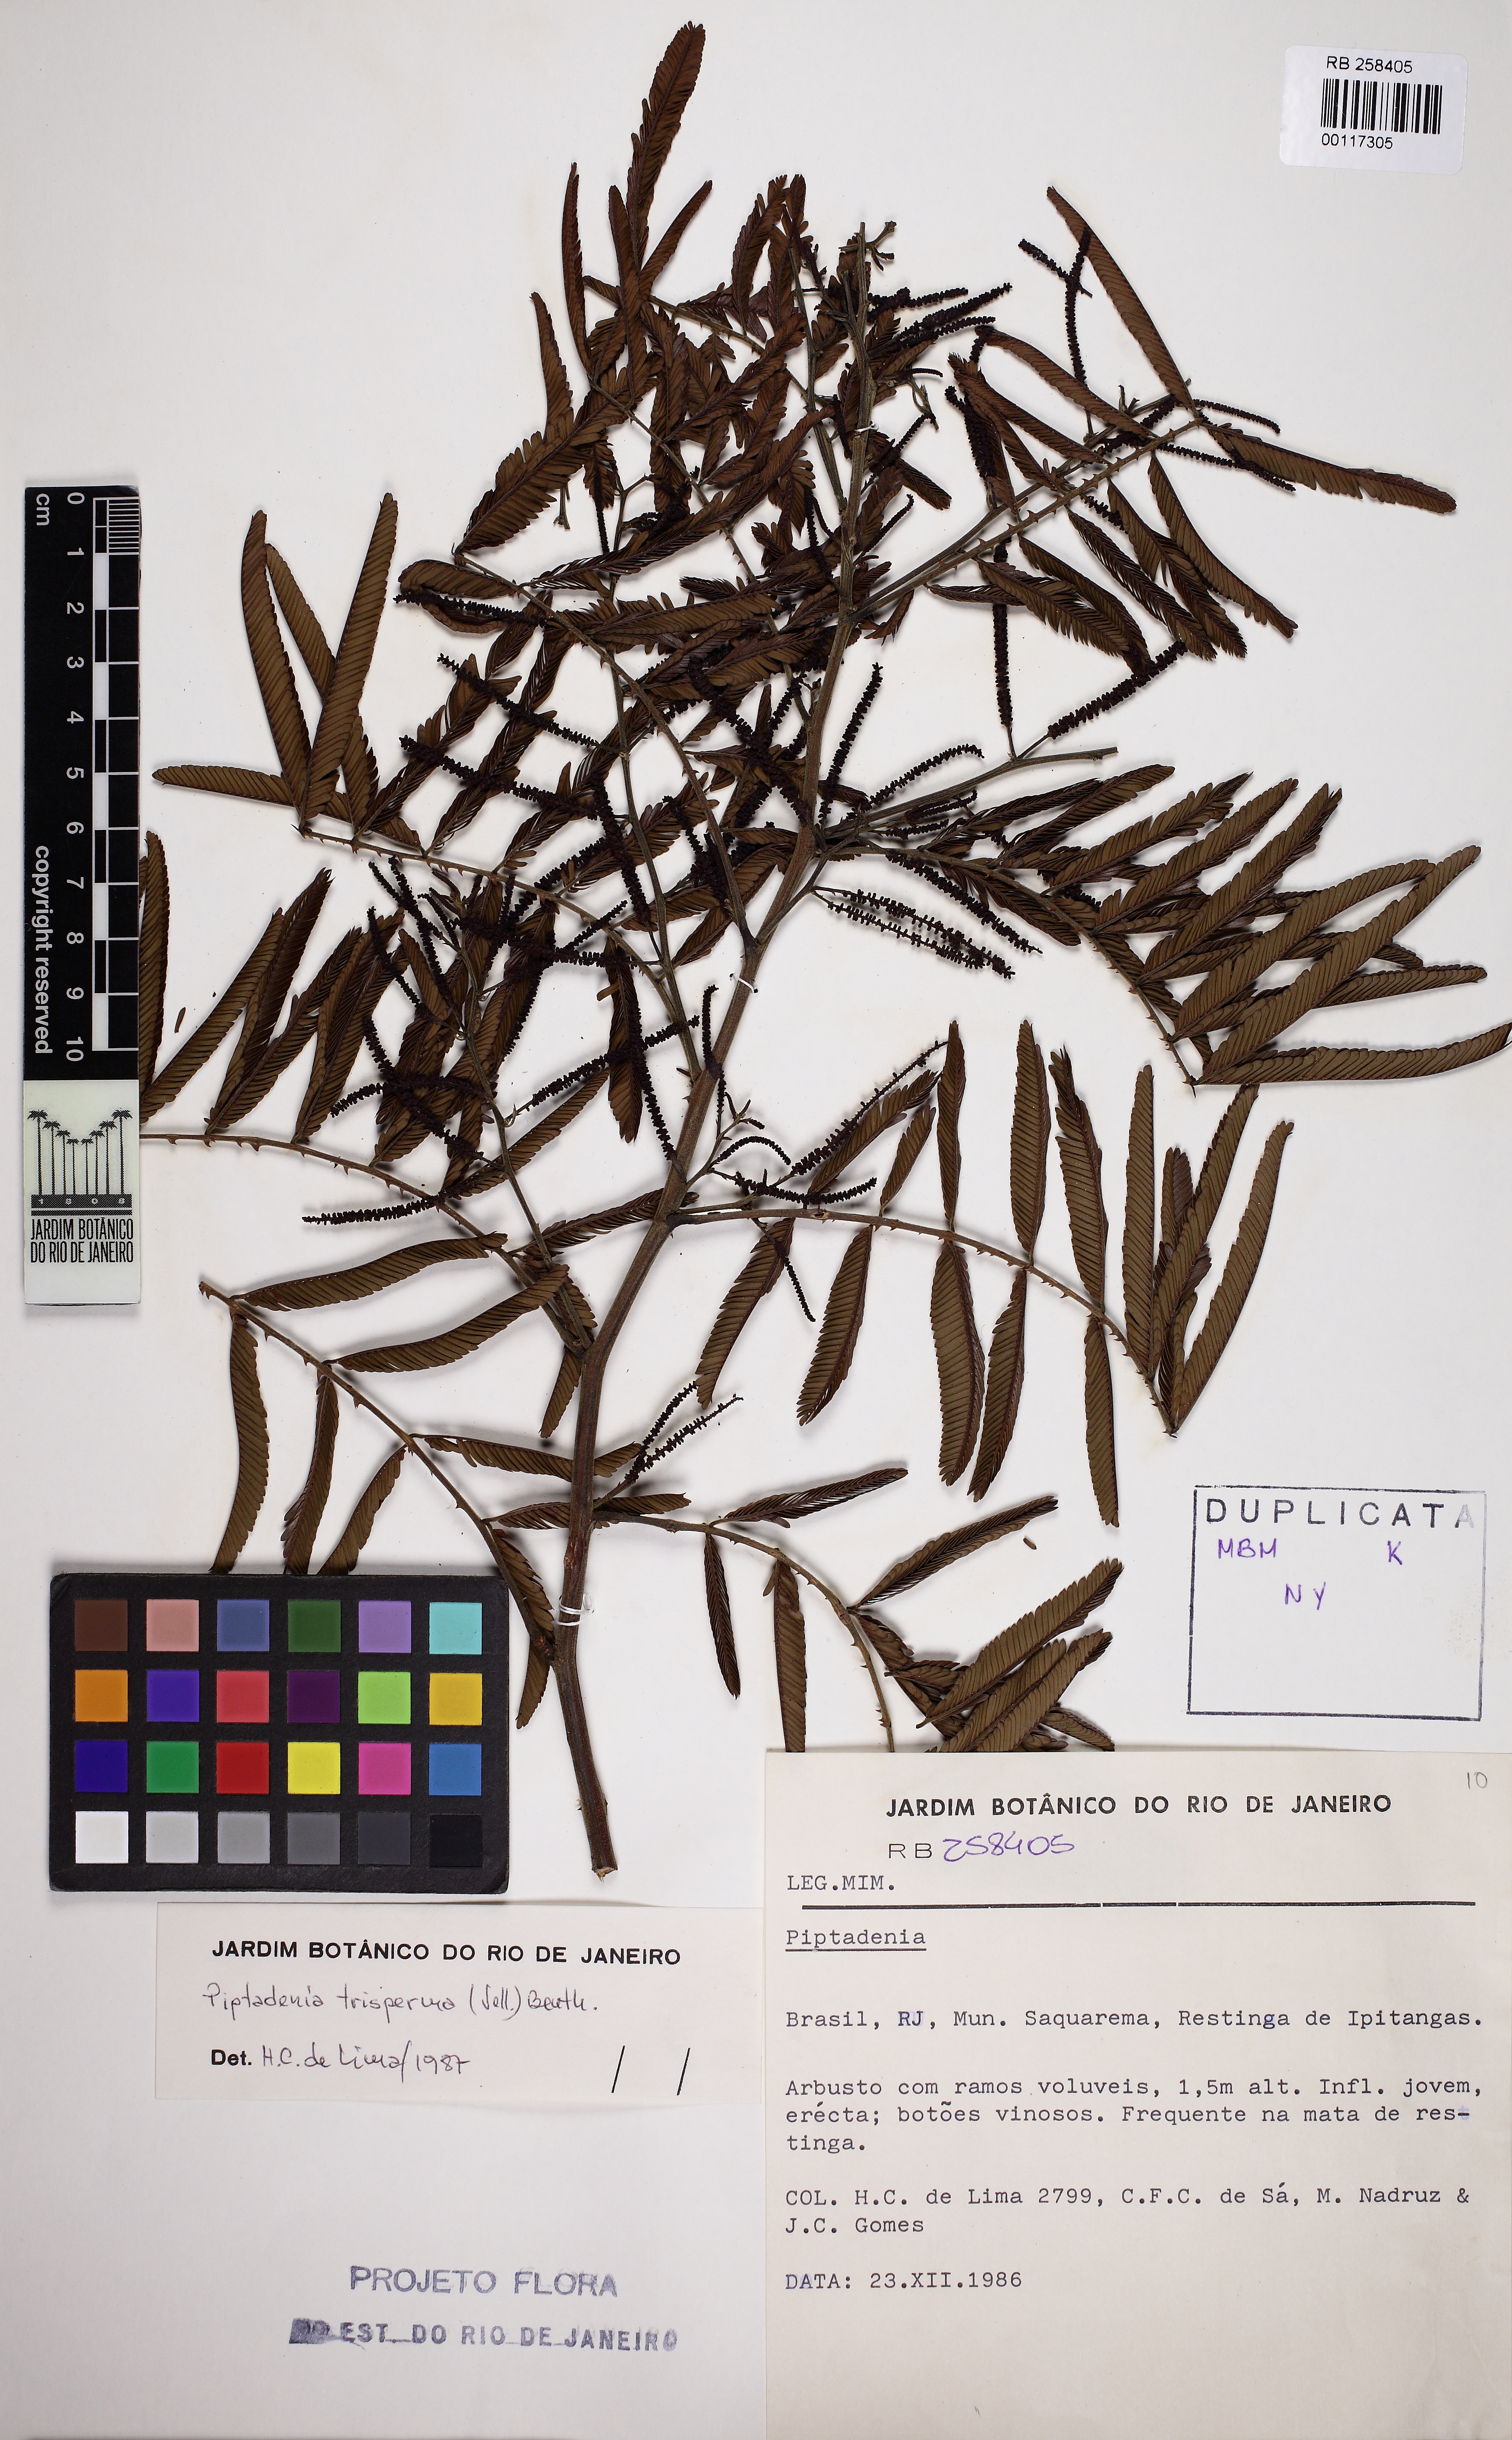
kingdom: Plantae
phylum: Tracheophyta
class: Magnoliopsida
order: Fabales
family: Fabaceae
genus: Piptadenia
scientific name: Piptadenia trisperma
